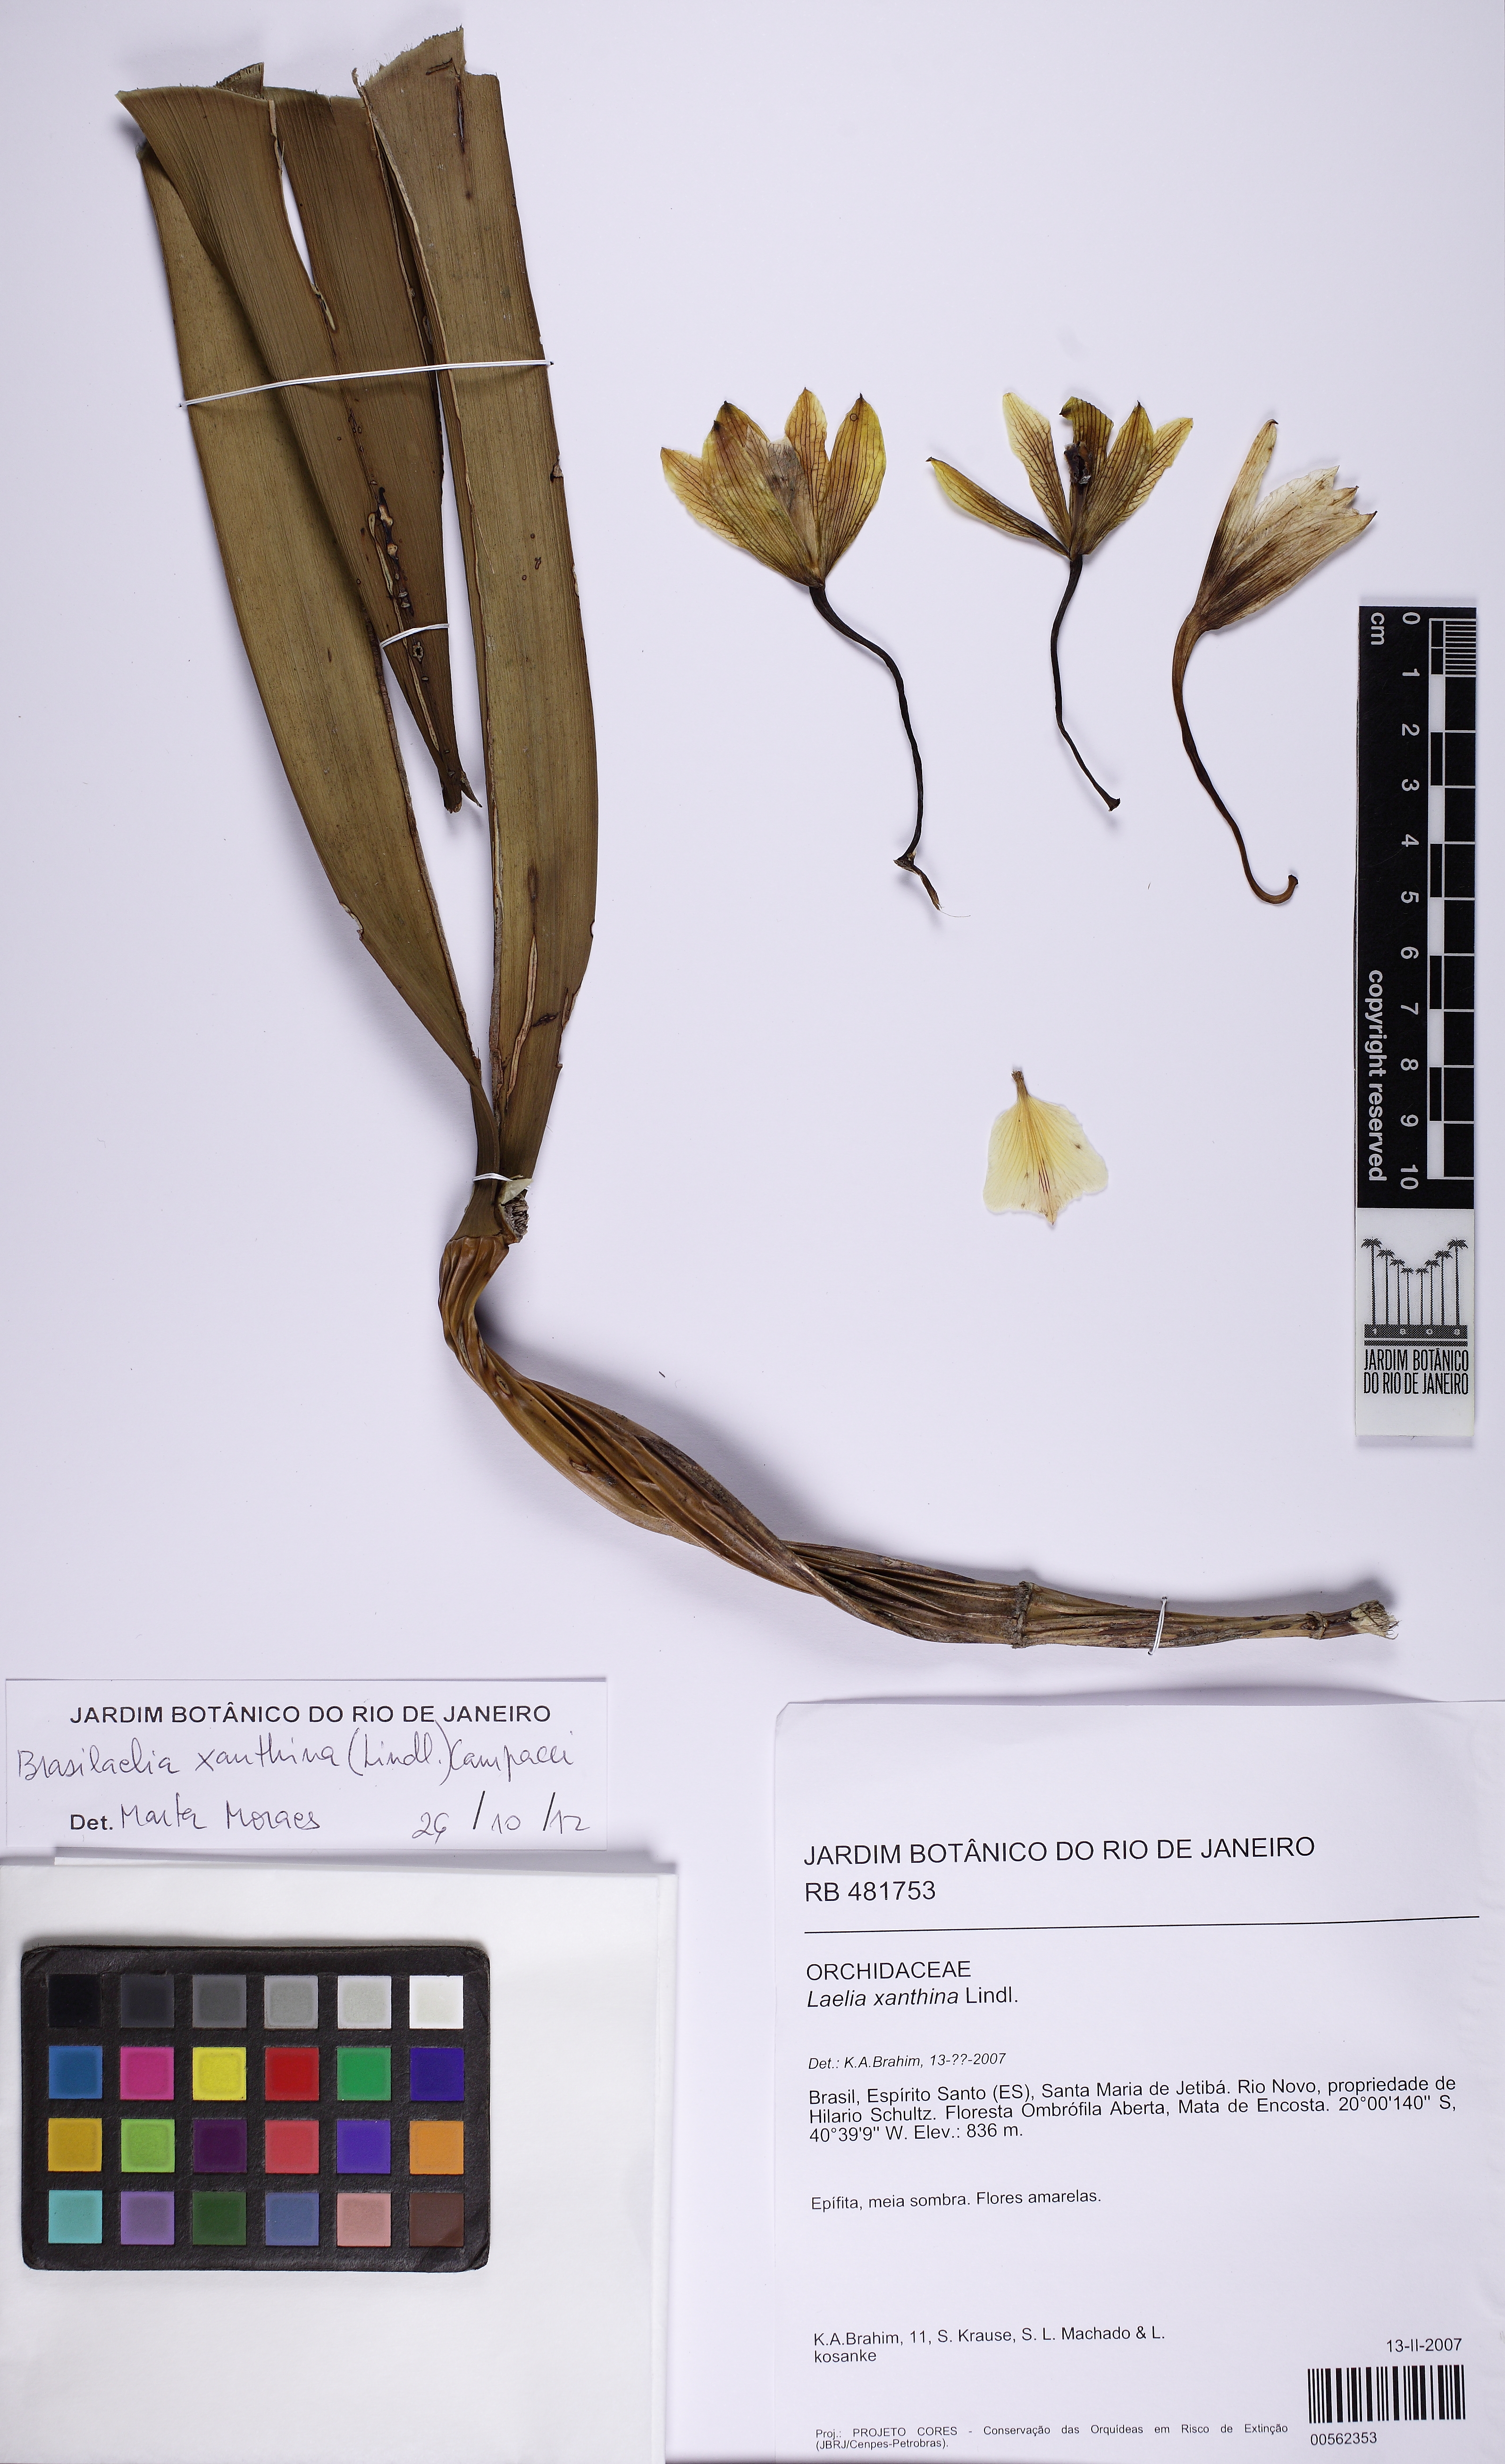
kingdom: Plantae
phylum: Tracheophyta
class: Liliopsida
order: Asparagales
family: Orchidaceae
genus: Cattleya
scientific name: Cattleya xanthina
